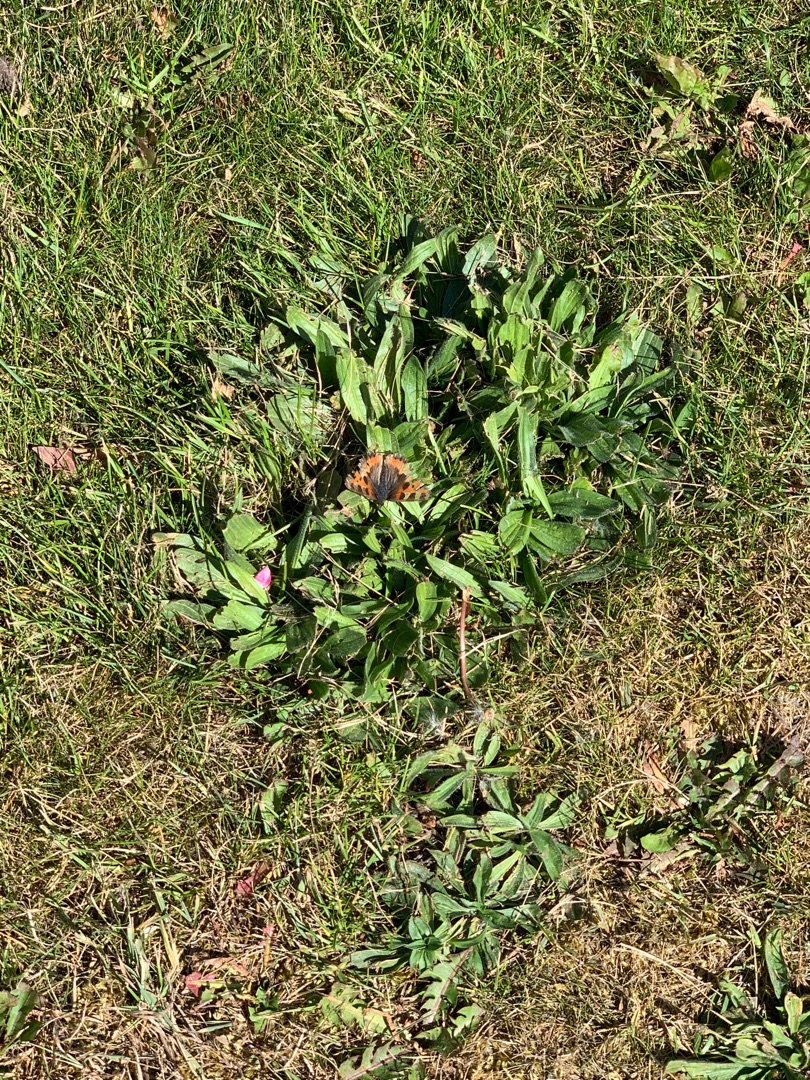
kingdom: Animalia
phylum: Arthropoda
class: Insecta
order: Lepidoptera
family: Nymphalidae
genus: Aglais
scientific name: Aglais urticae
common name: Nældens takvinge
